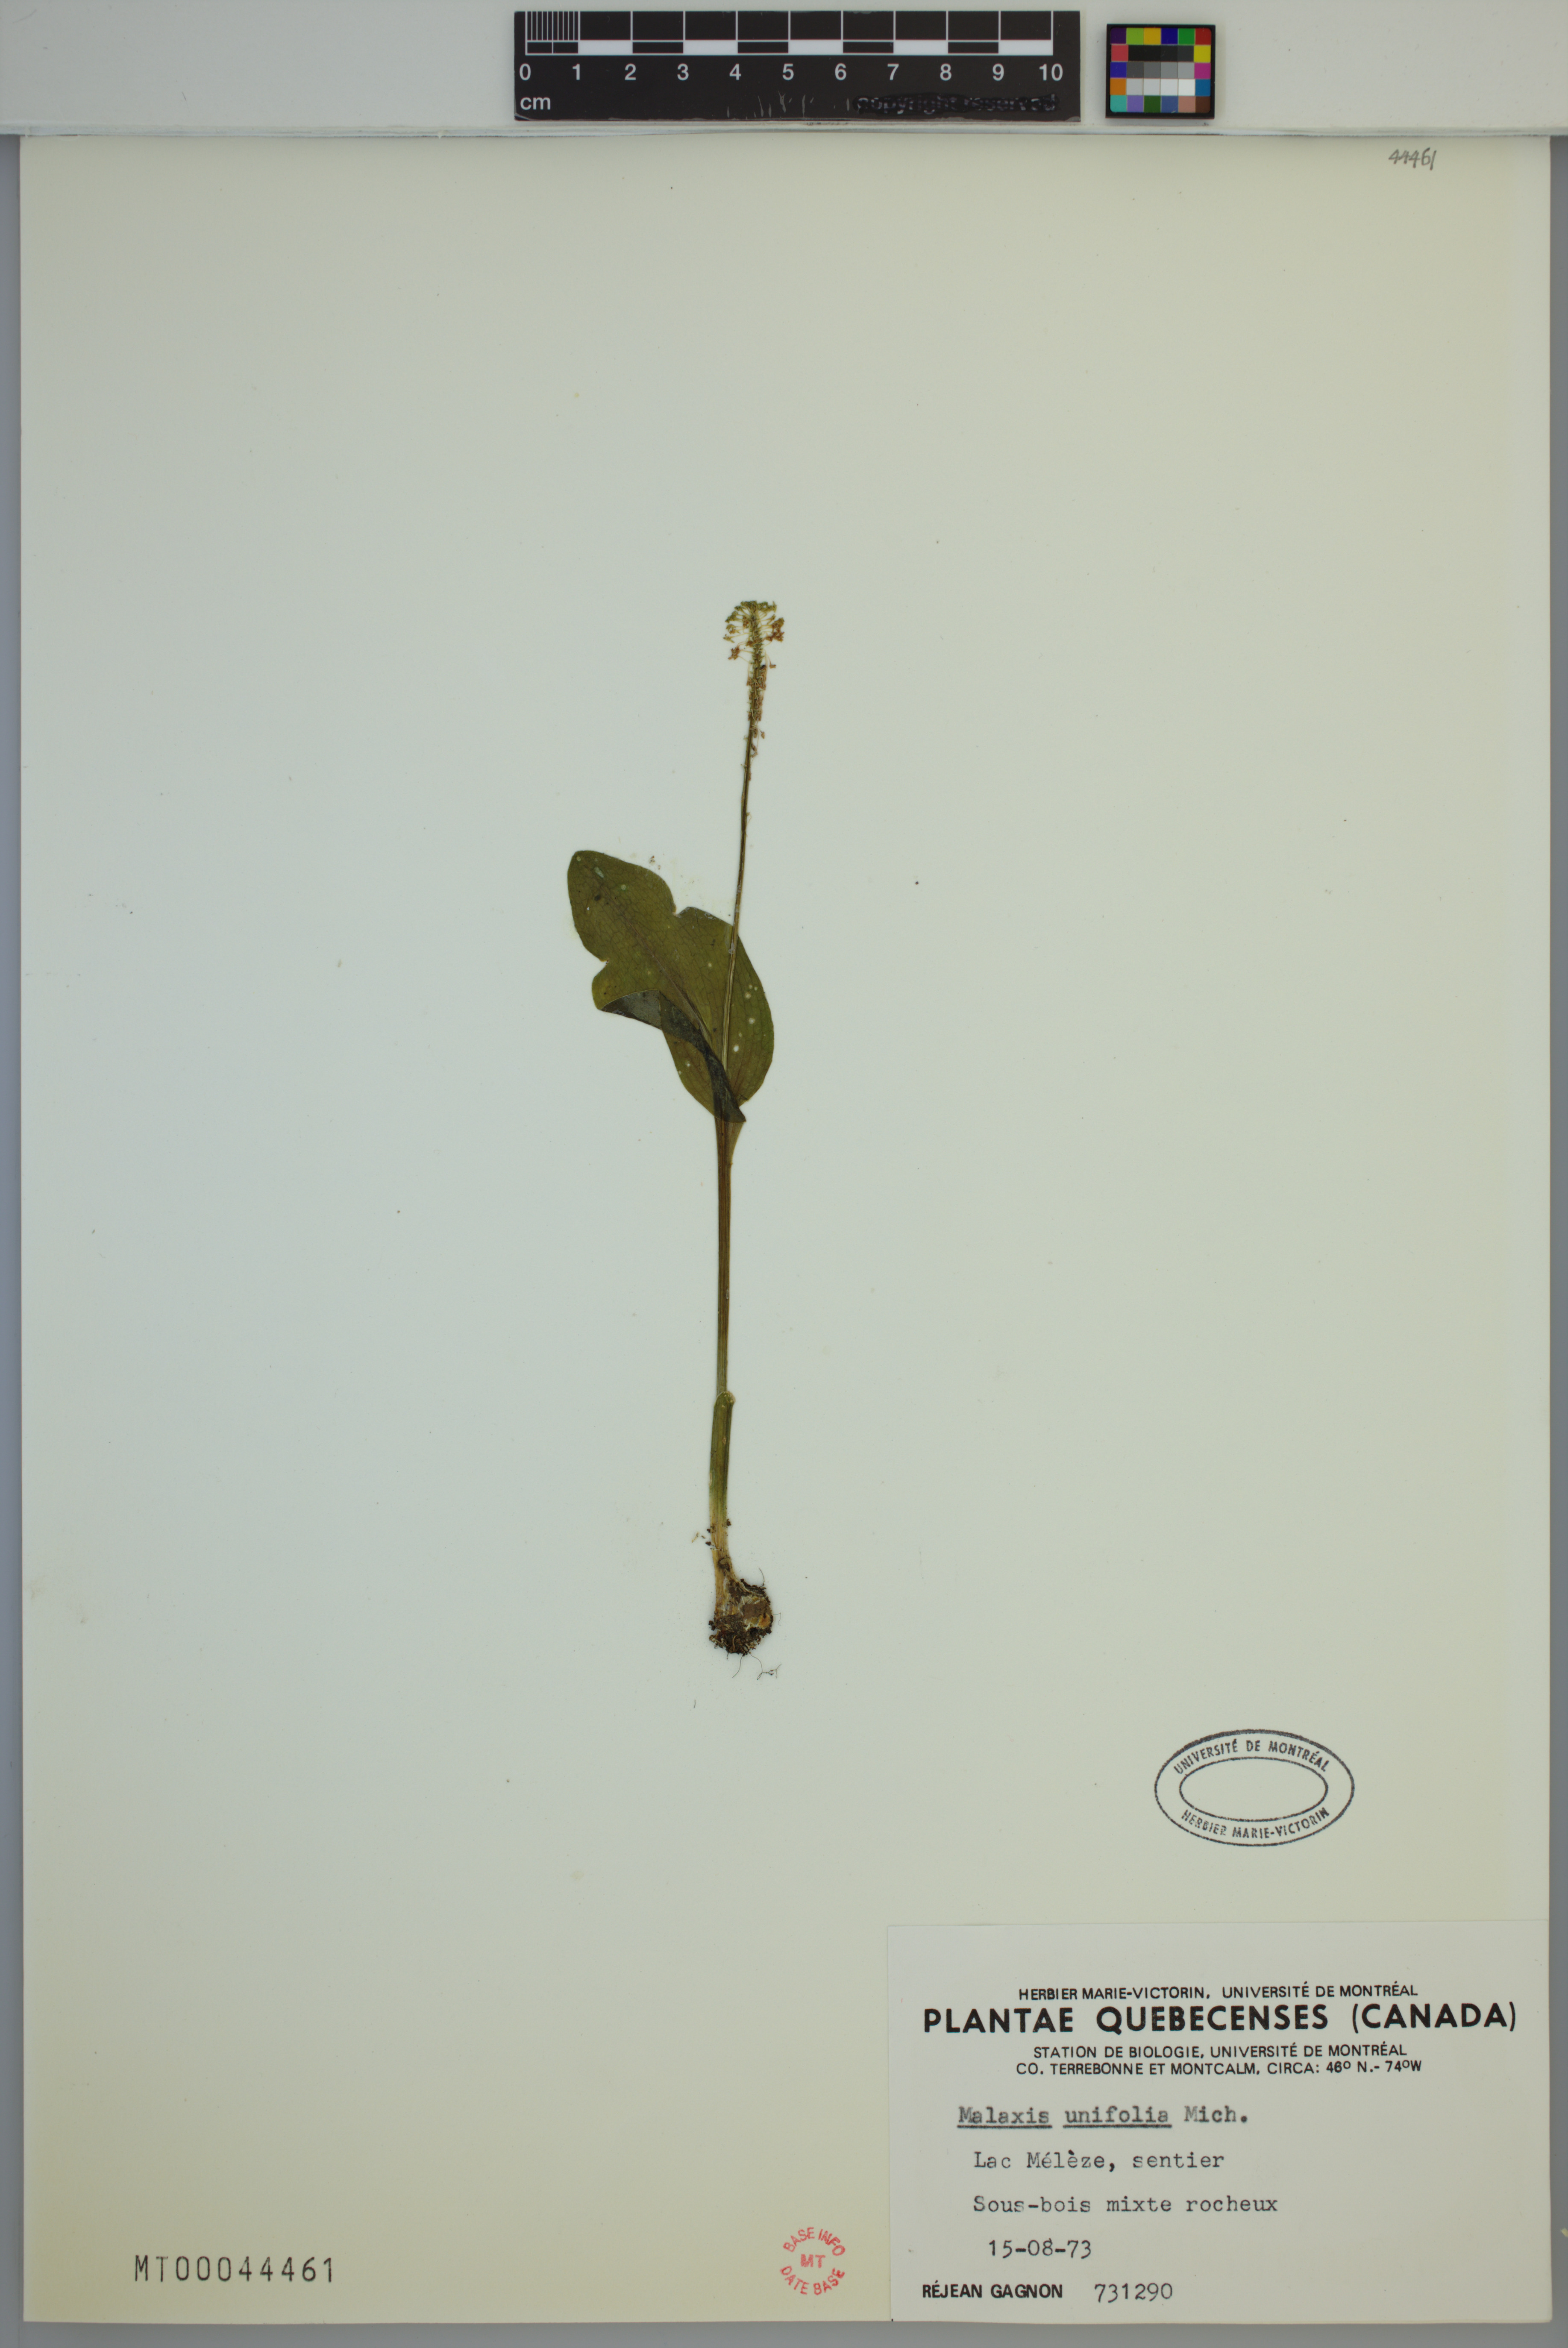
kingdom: Plantae
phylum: Tracheophyta
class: Liliopsida
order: Asparagales
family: Orchidaceae
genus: Malaxis
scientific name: Malaxis unifolia
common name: Green adder's-mouth
